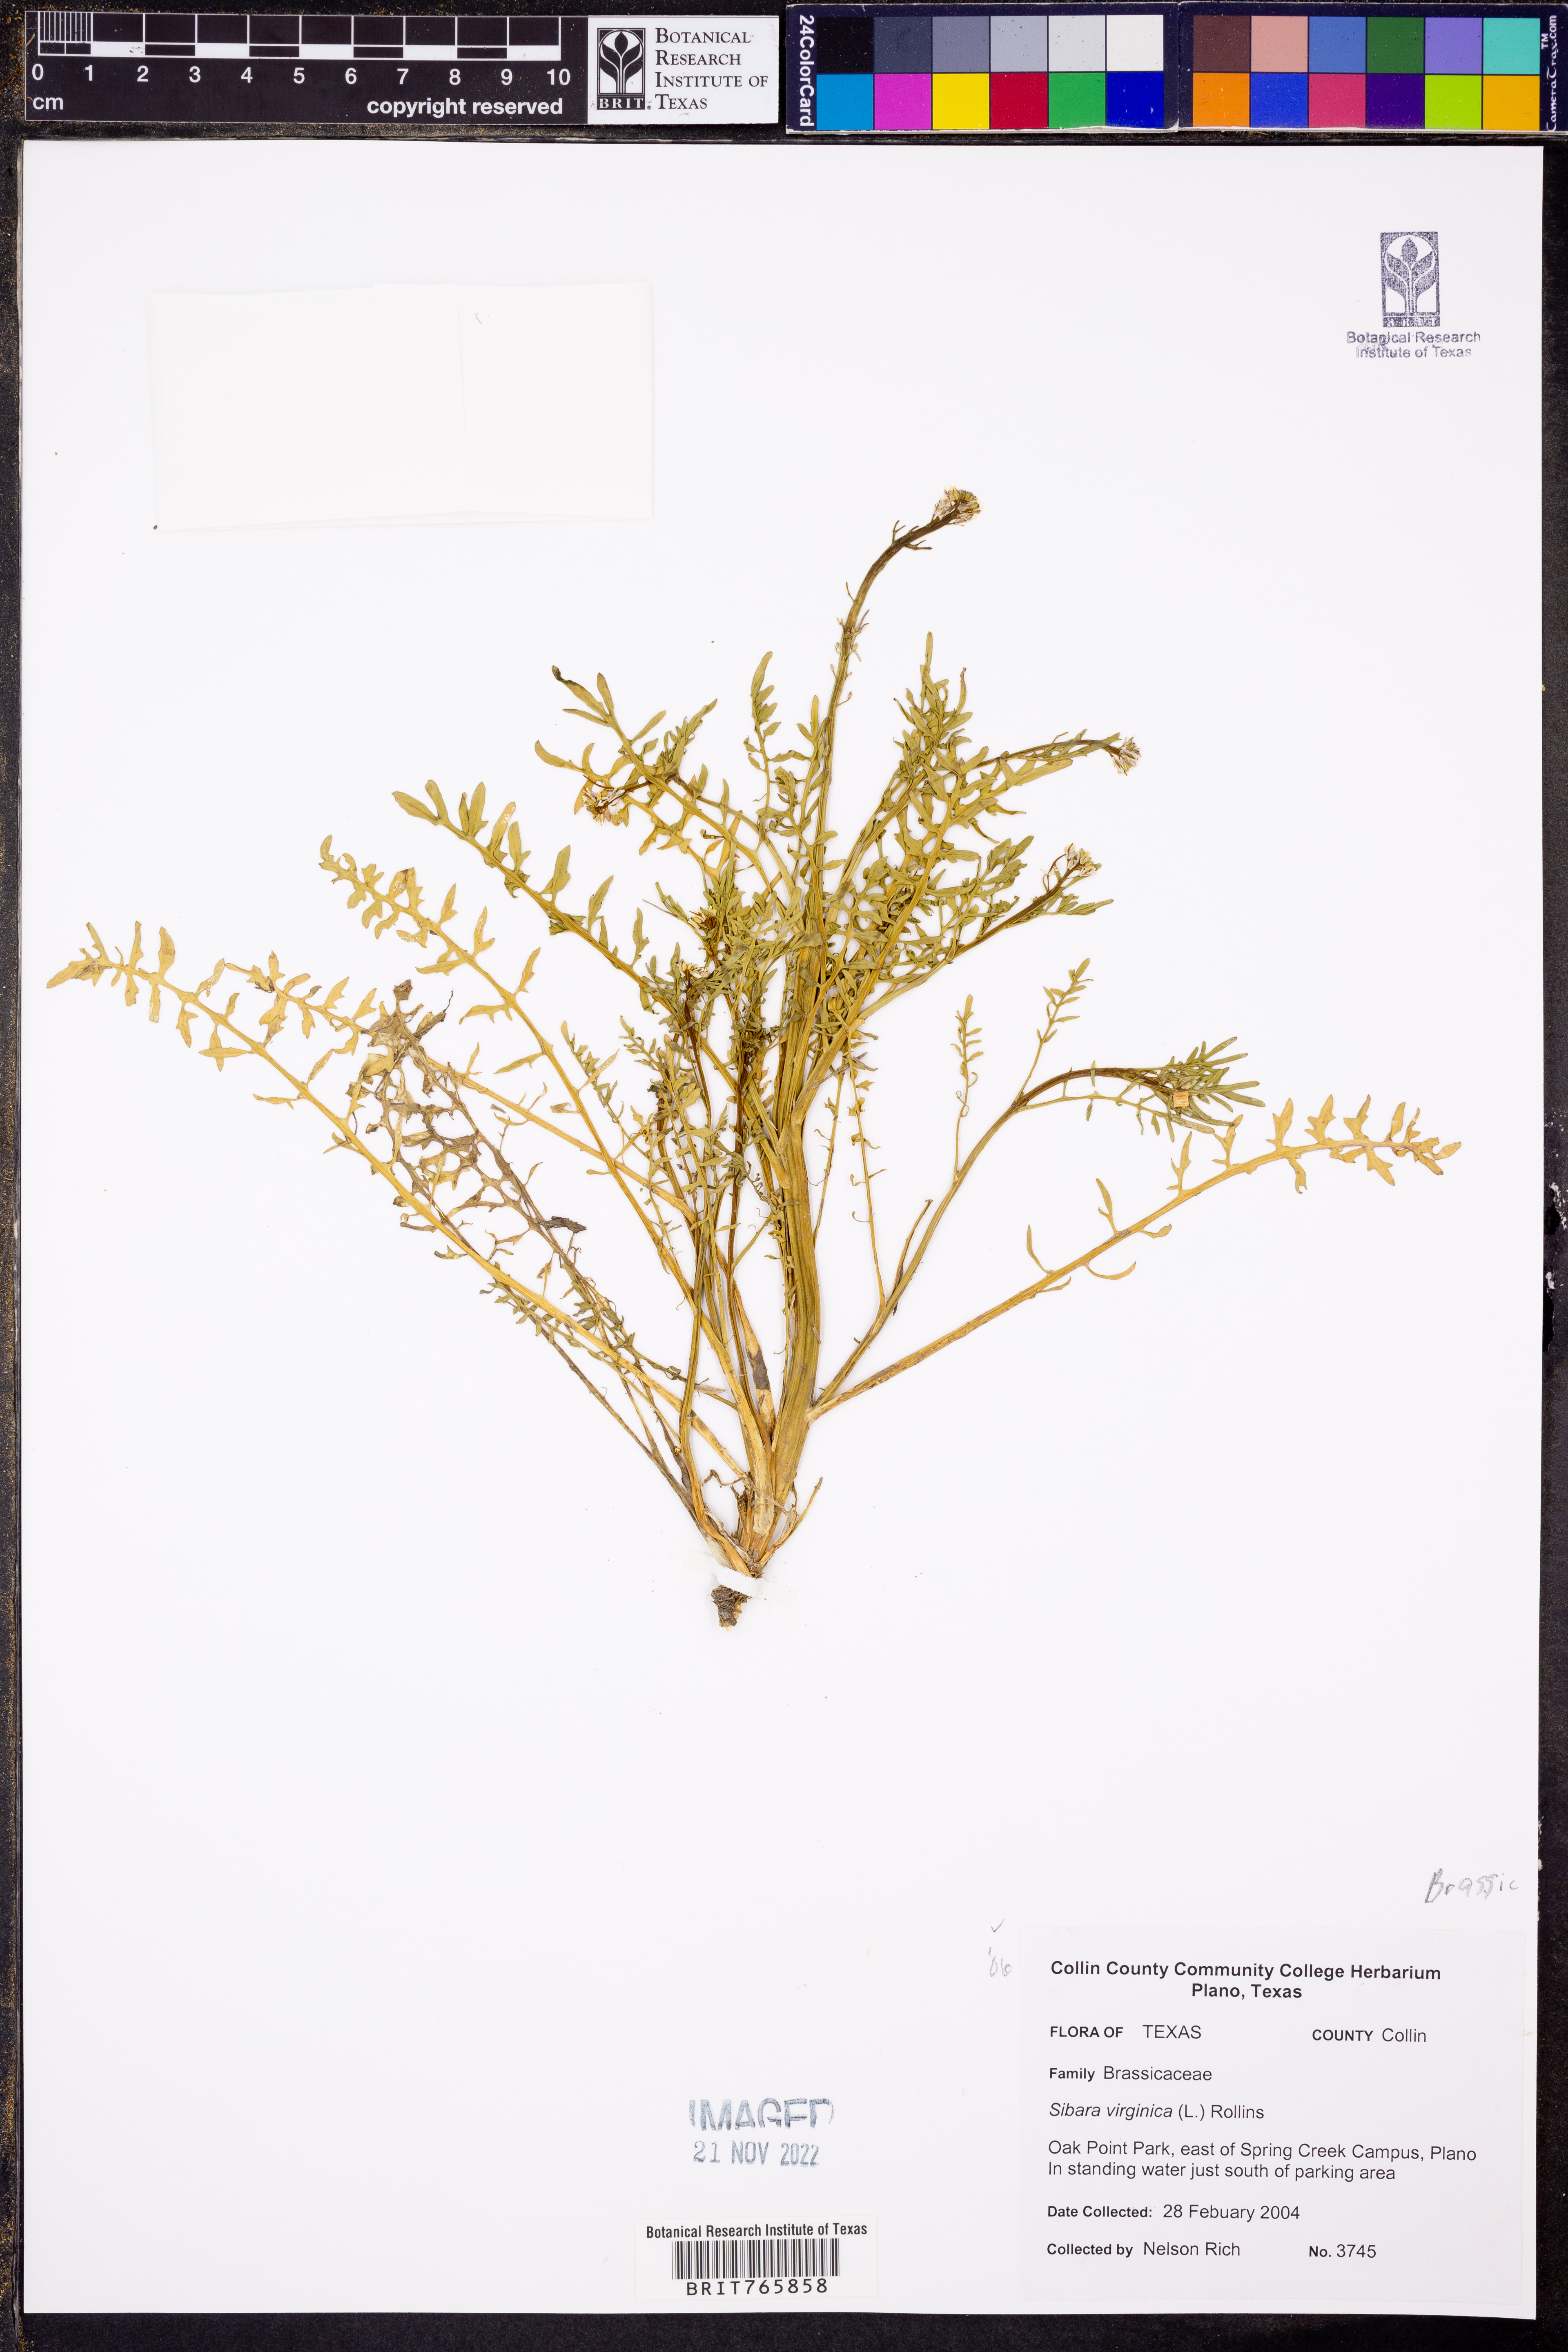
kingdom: Plantae
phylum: Tracheophyta
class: Magnoliopsida
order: Brassicales
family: Brassicaceae
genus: Planodes
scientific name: Planodes virginicum
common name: Virginia cress
